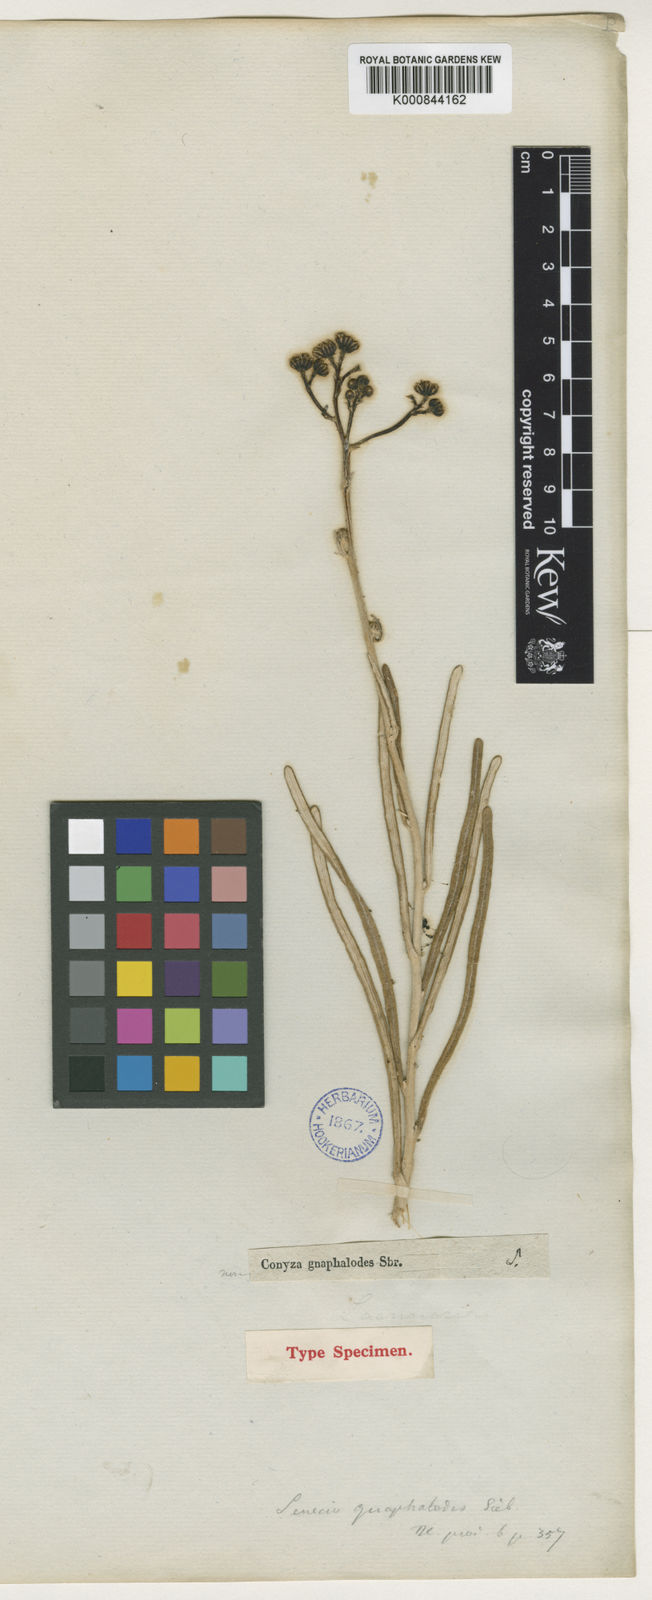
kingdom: Plantae
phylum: Tracheophyta
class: Magnoliopsida
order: Asterales
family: Asteraceae
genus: Jacobaea
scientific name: Jacobaea gnaphalioides
